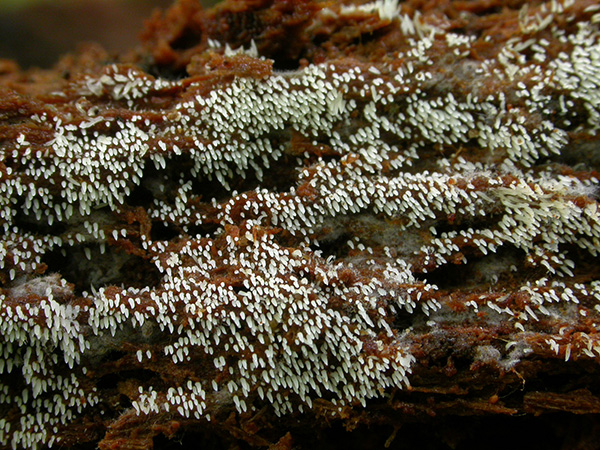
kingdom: Fungi
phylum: Basidiomycota
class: Agaricomycetes
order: Agaricales
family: Clavariaceae
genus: Mucronella
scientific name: Mucronella calva
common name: hvid hængepig
